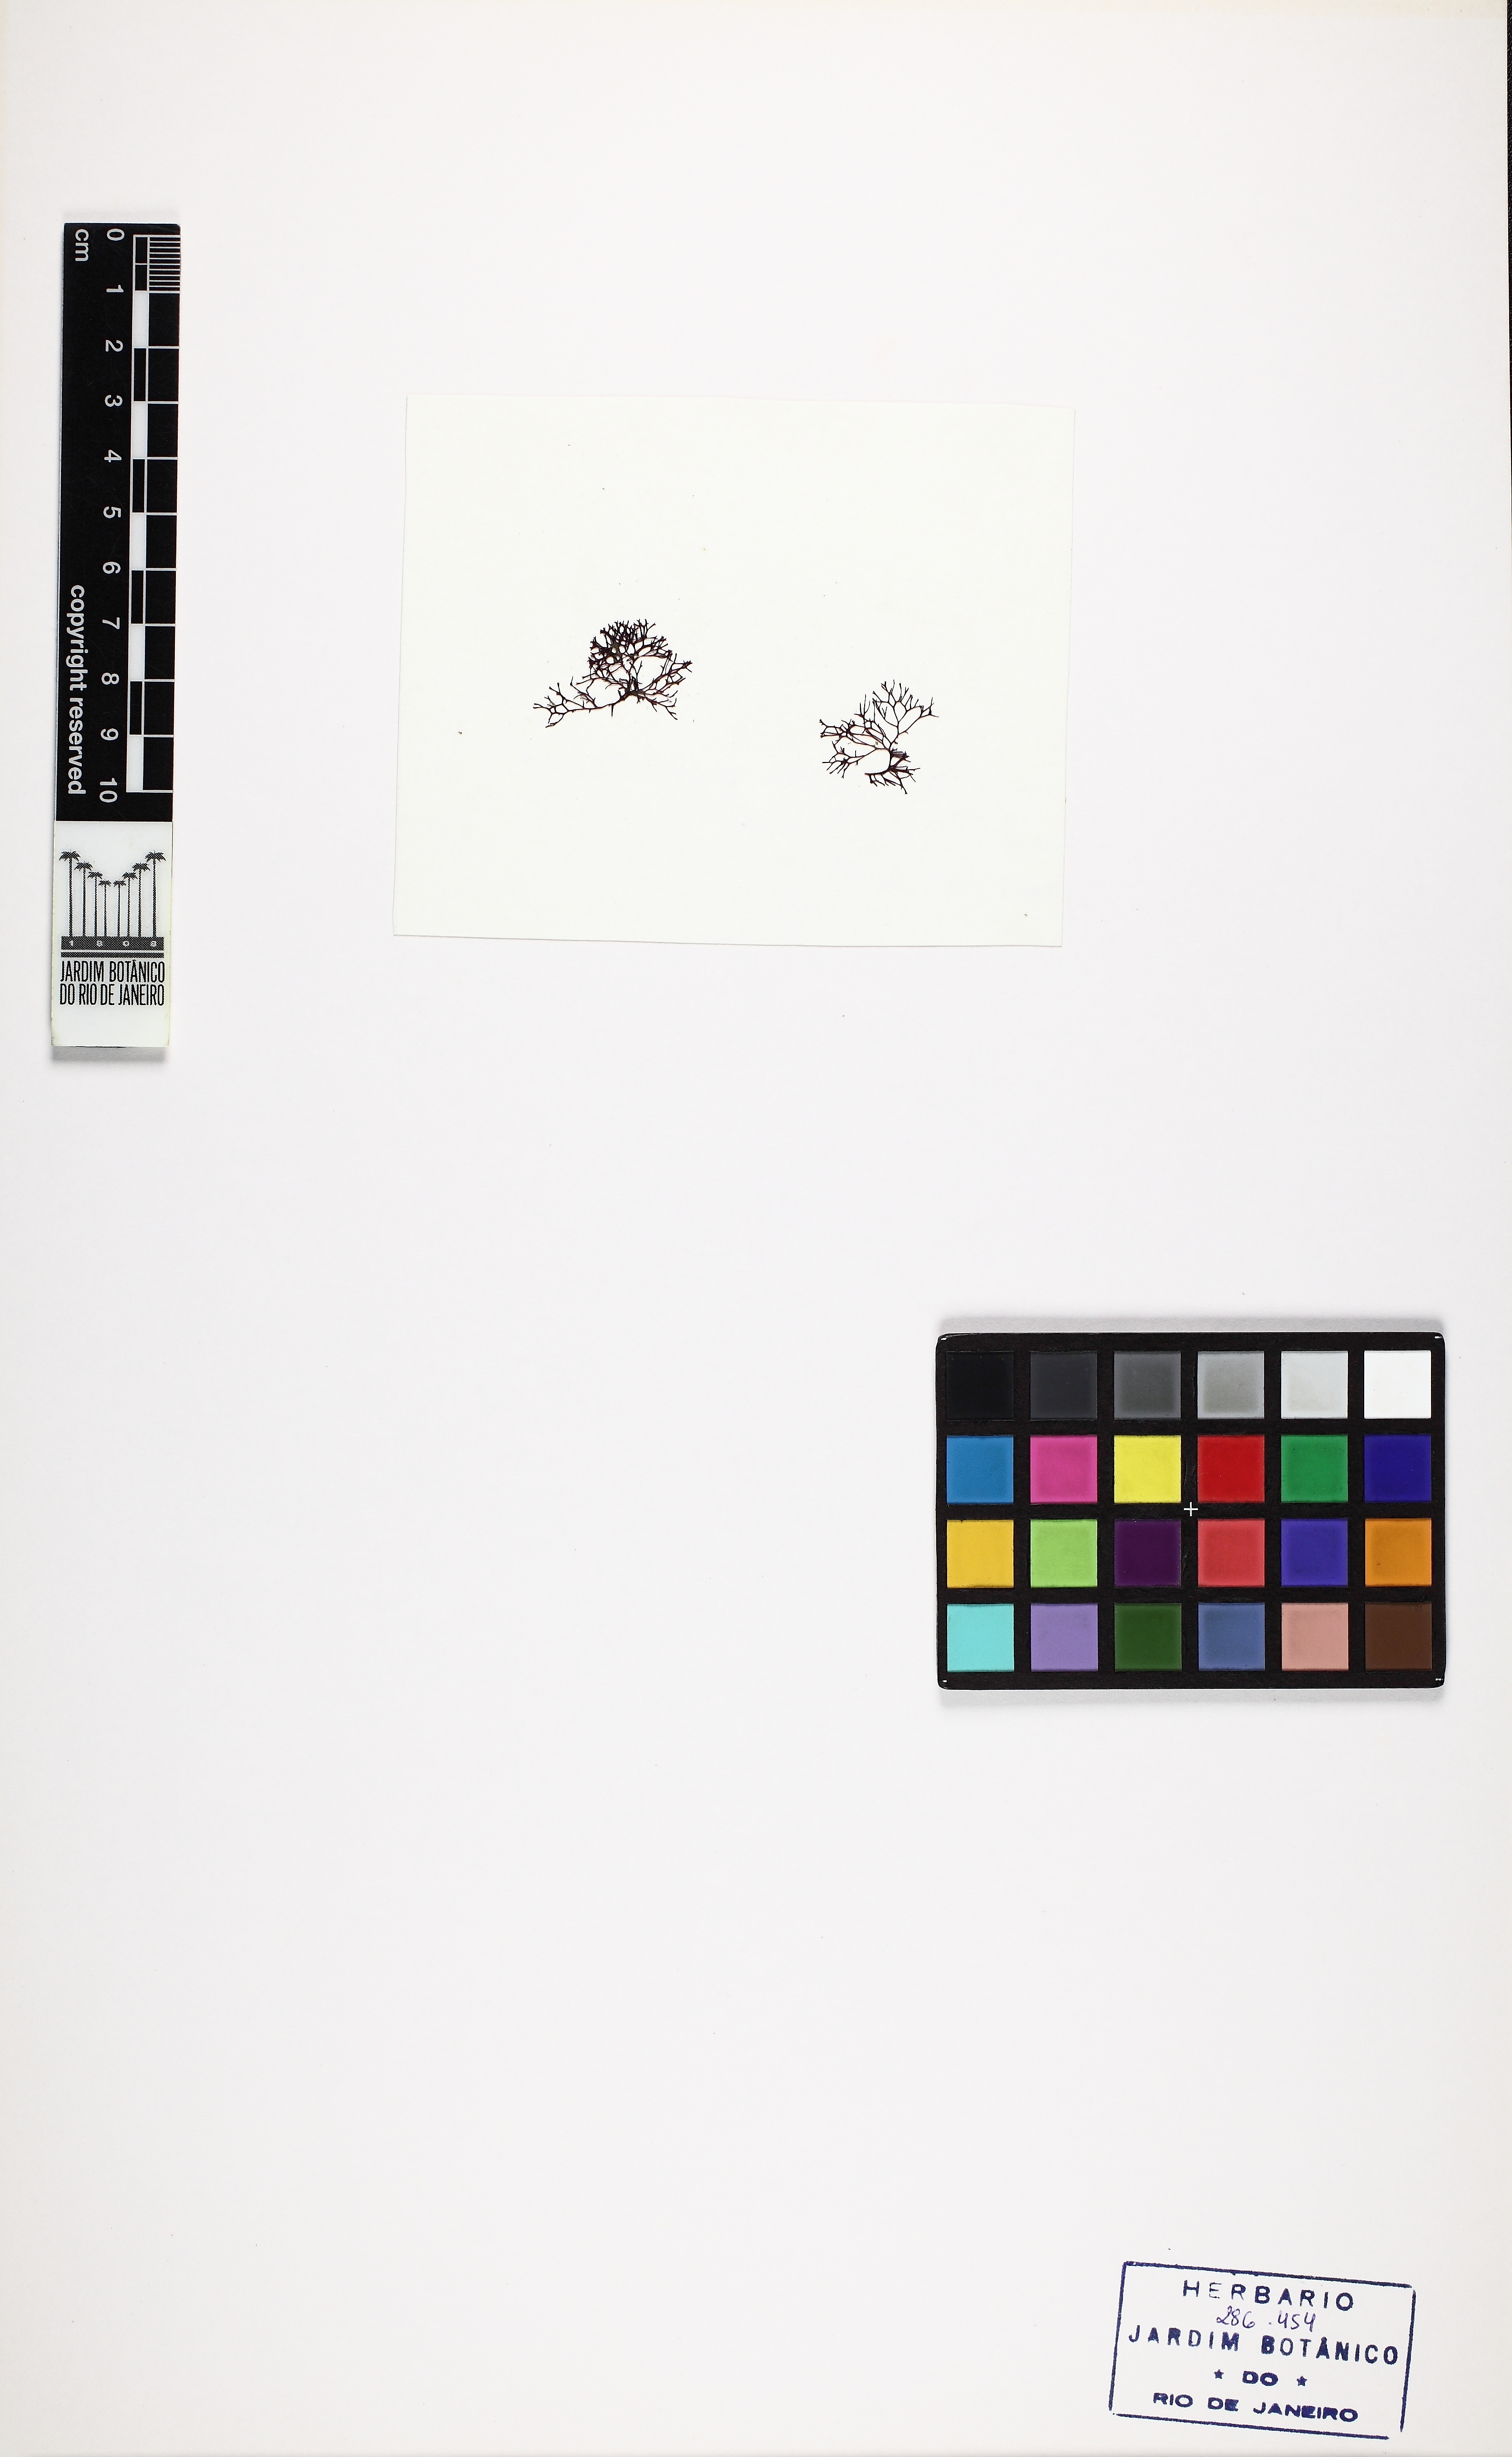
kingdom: Plantae
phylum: Rhodophyta
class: Florideophyceae
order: Gigartinales
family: Phyllophoraceae
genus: Gymnogongrus
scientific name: Gymnogongrus griffithsiae
